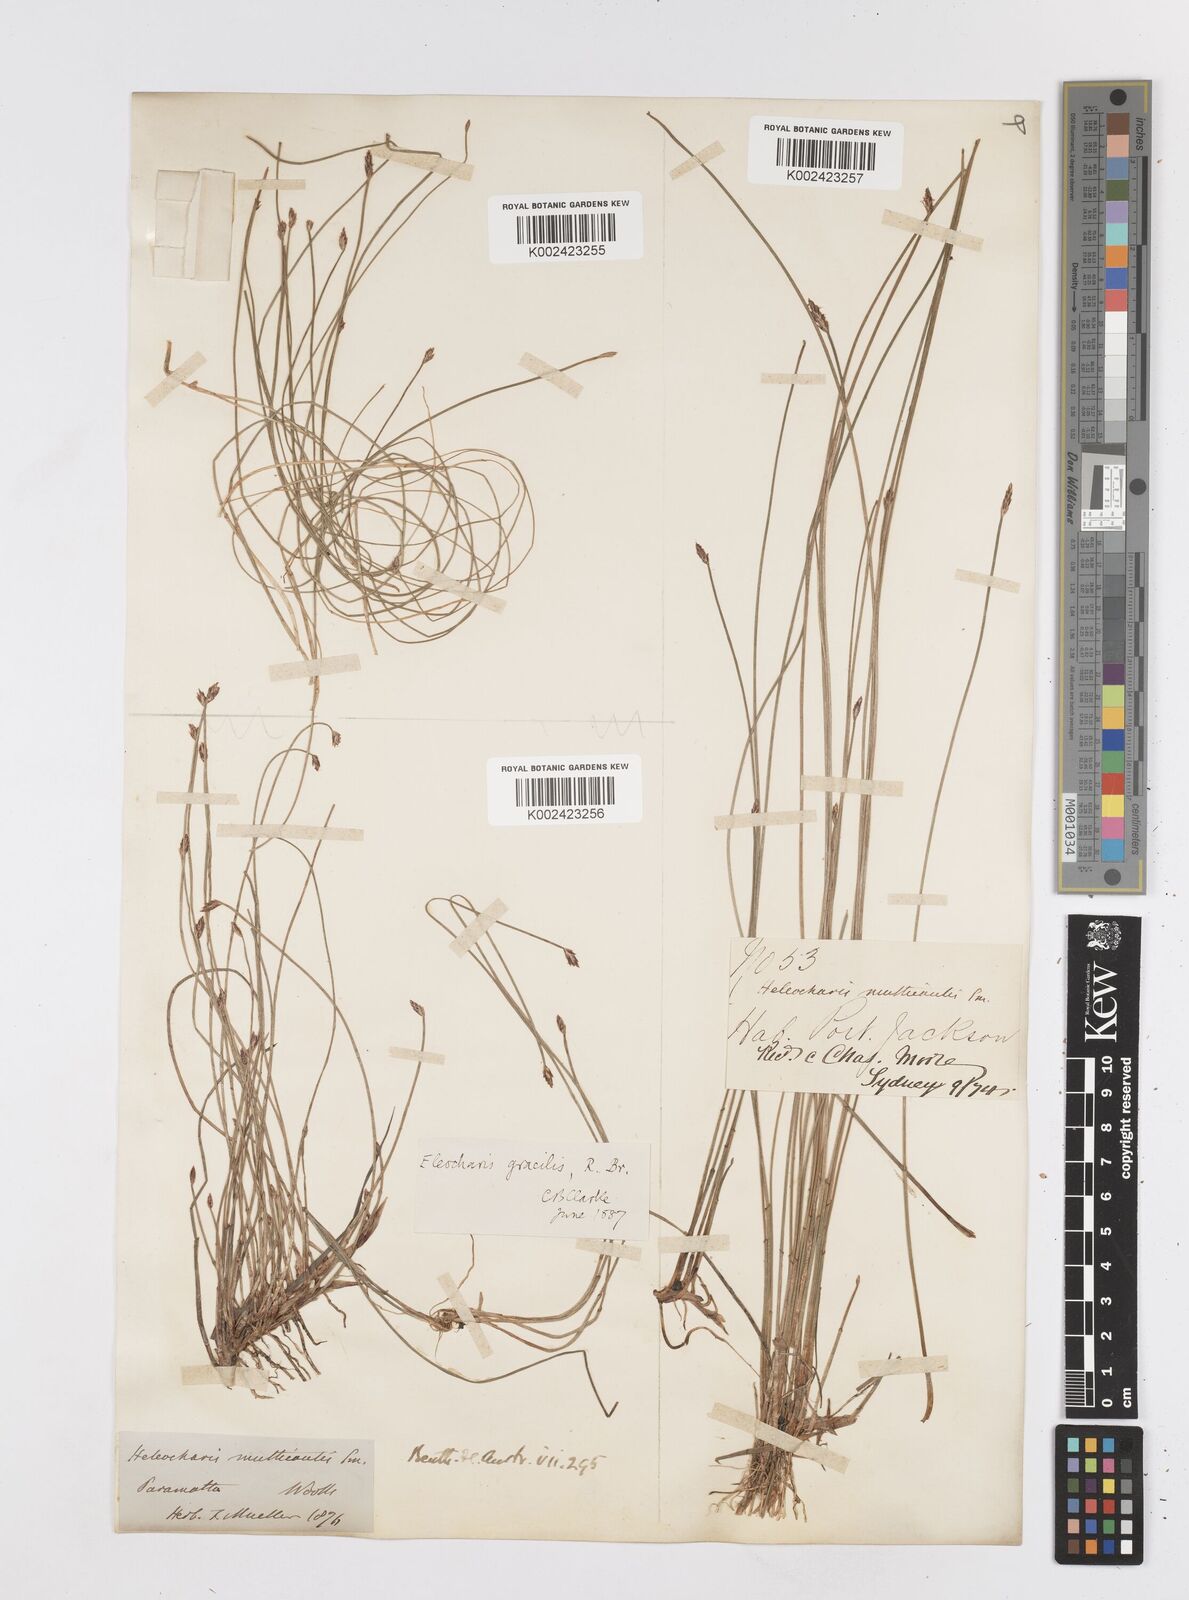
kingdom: Plantae
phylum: Tracheophyta
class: Liliopsida
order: Poales
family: Cyperaceae
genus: Eleocharis
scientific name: Eleocharis multicaulis
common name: Many-stalked spike-rush
